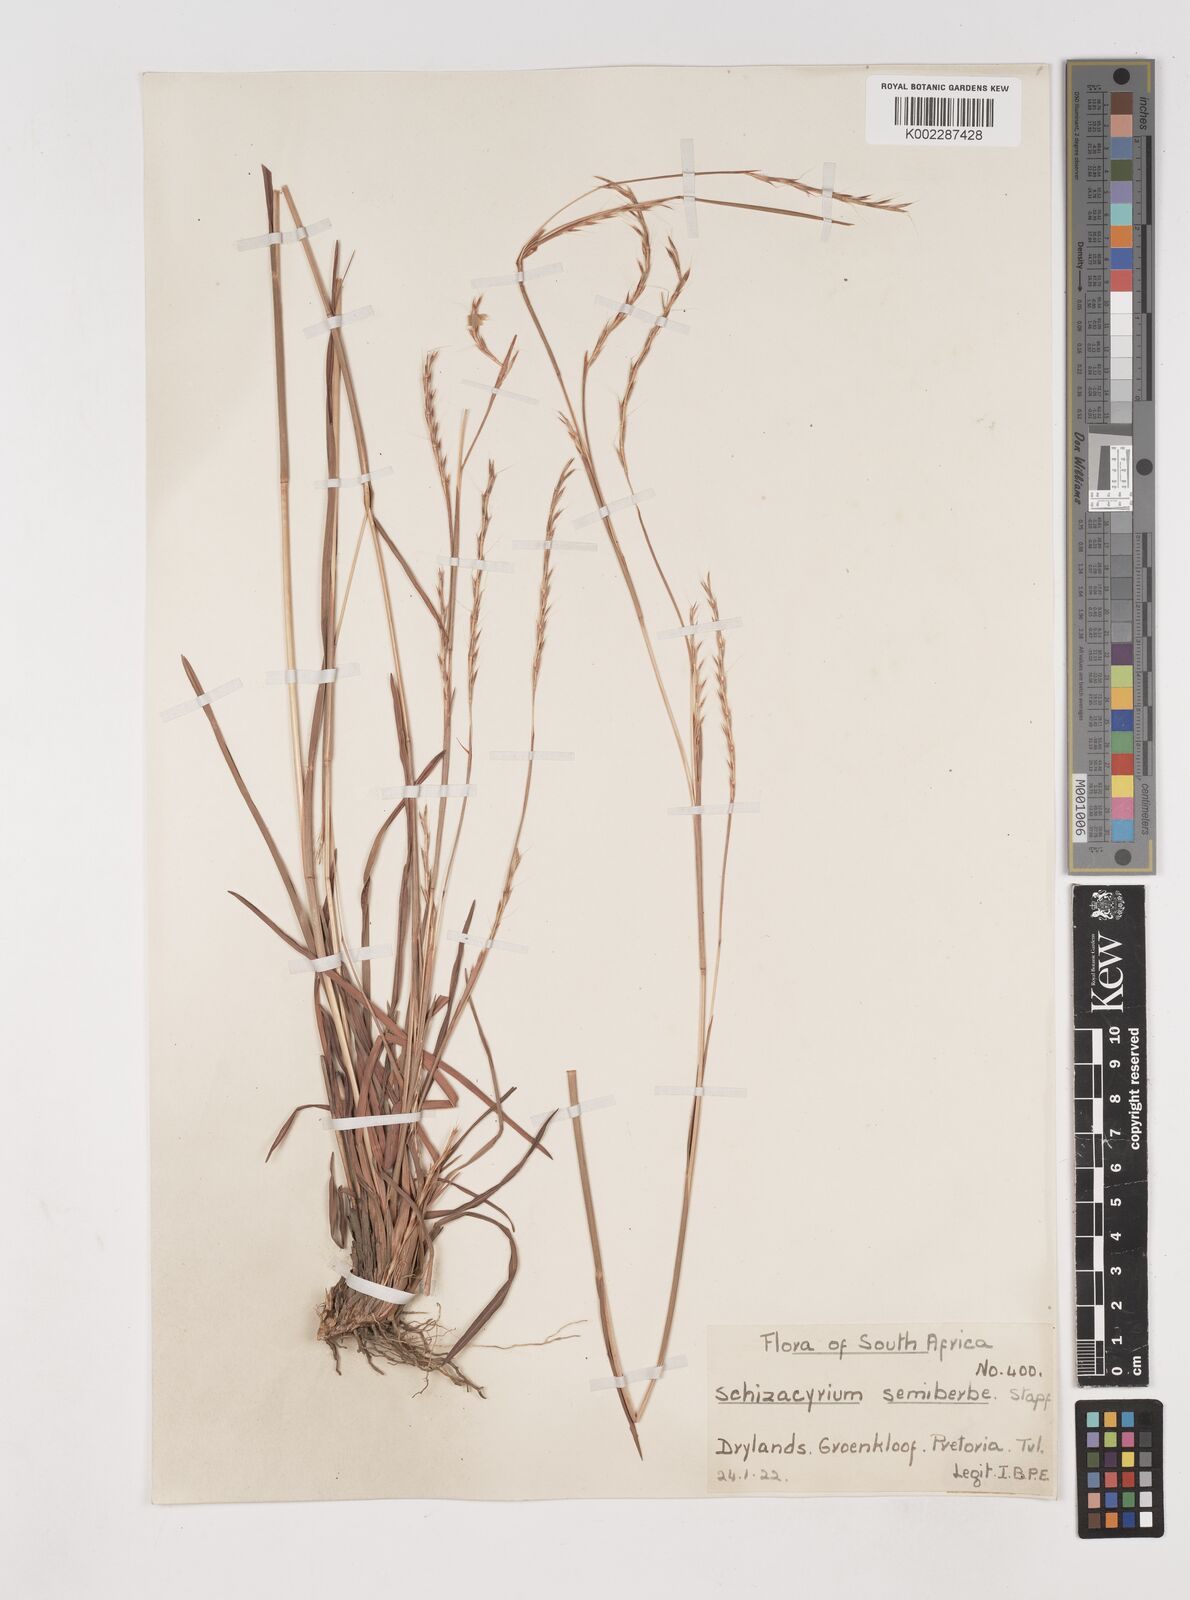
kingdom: Plantae
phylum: Tracheophyta
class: Liliopsida
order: Poales
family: Poaceae
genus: Schizachyrium
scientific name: Schizachyrium sanguineum
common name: Crimson bluestem
